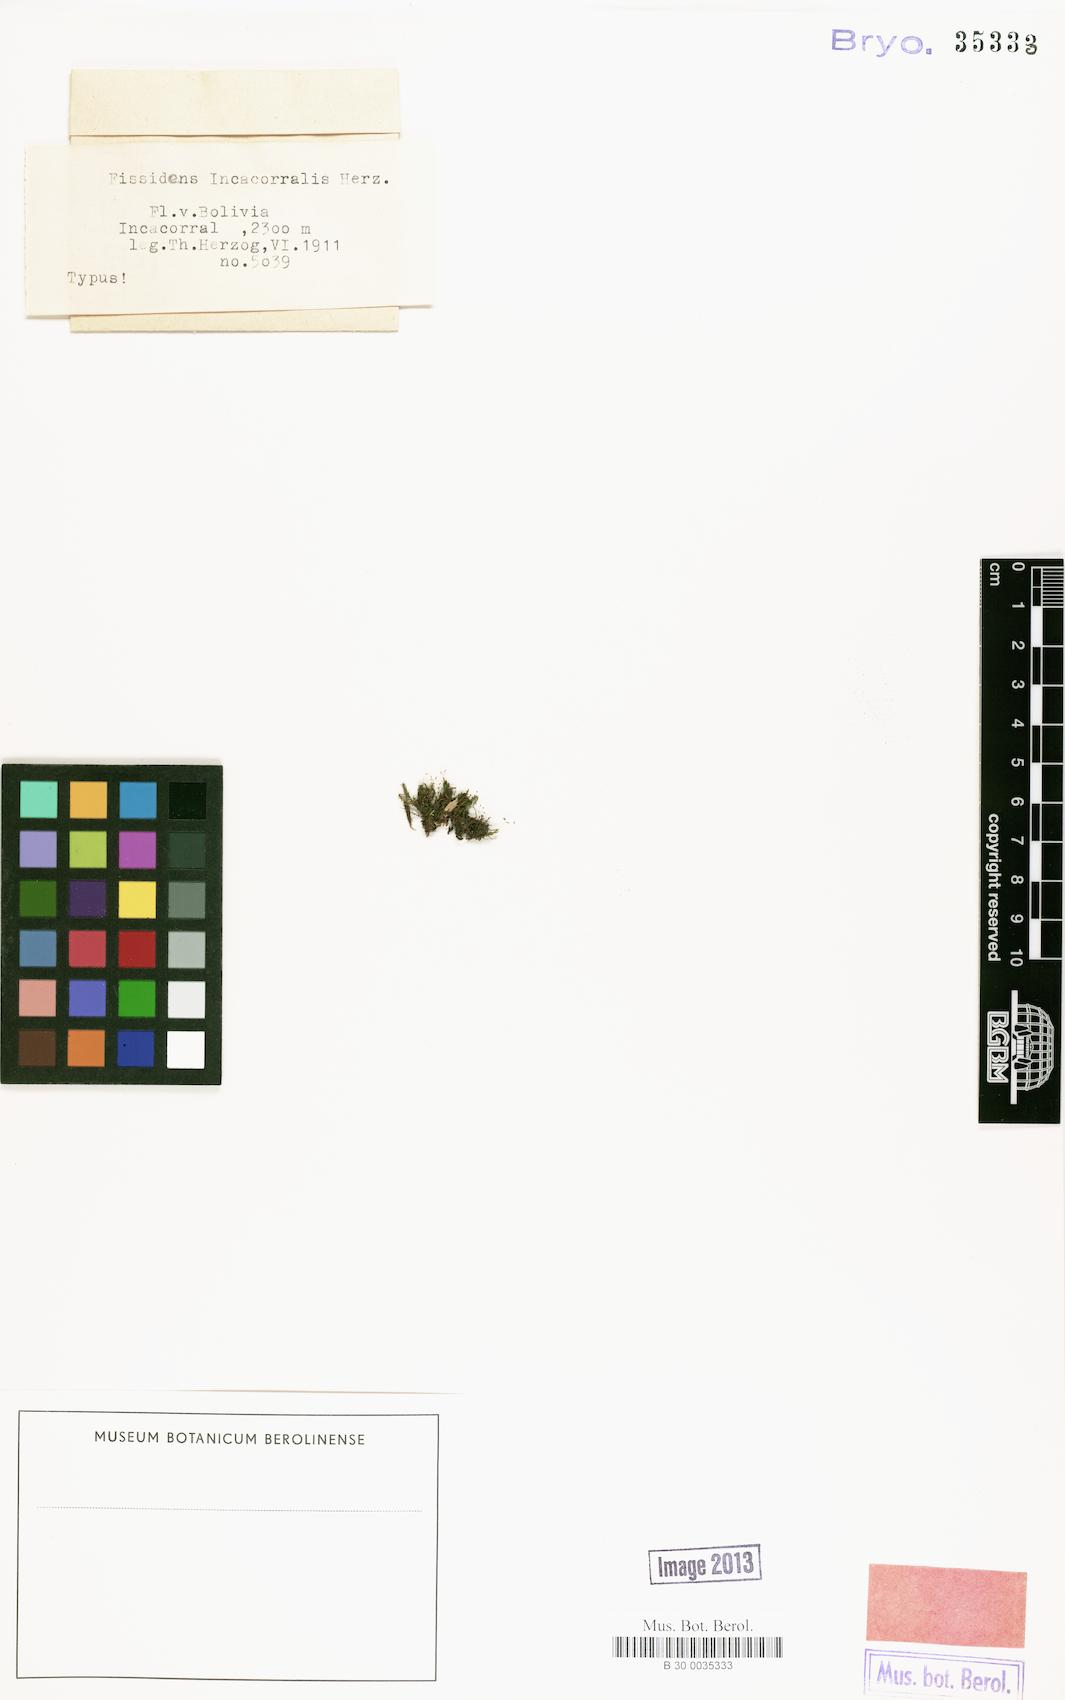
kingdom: Plantae
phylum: Bryophyta
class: Bryopsida
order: Dicranales
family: Fissidentaceae
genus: Fissidens
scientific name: Fissidens intramarginatus
